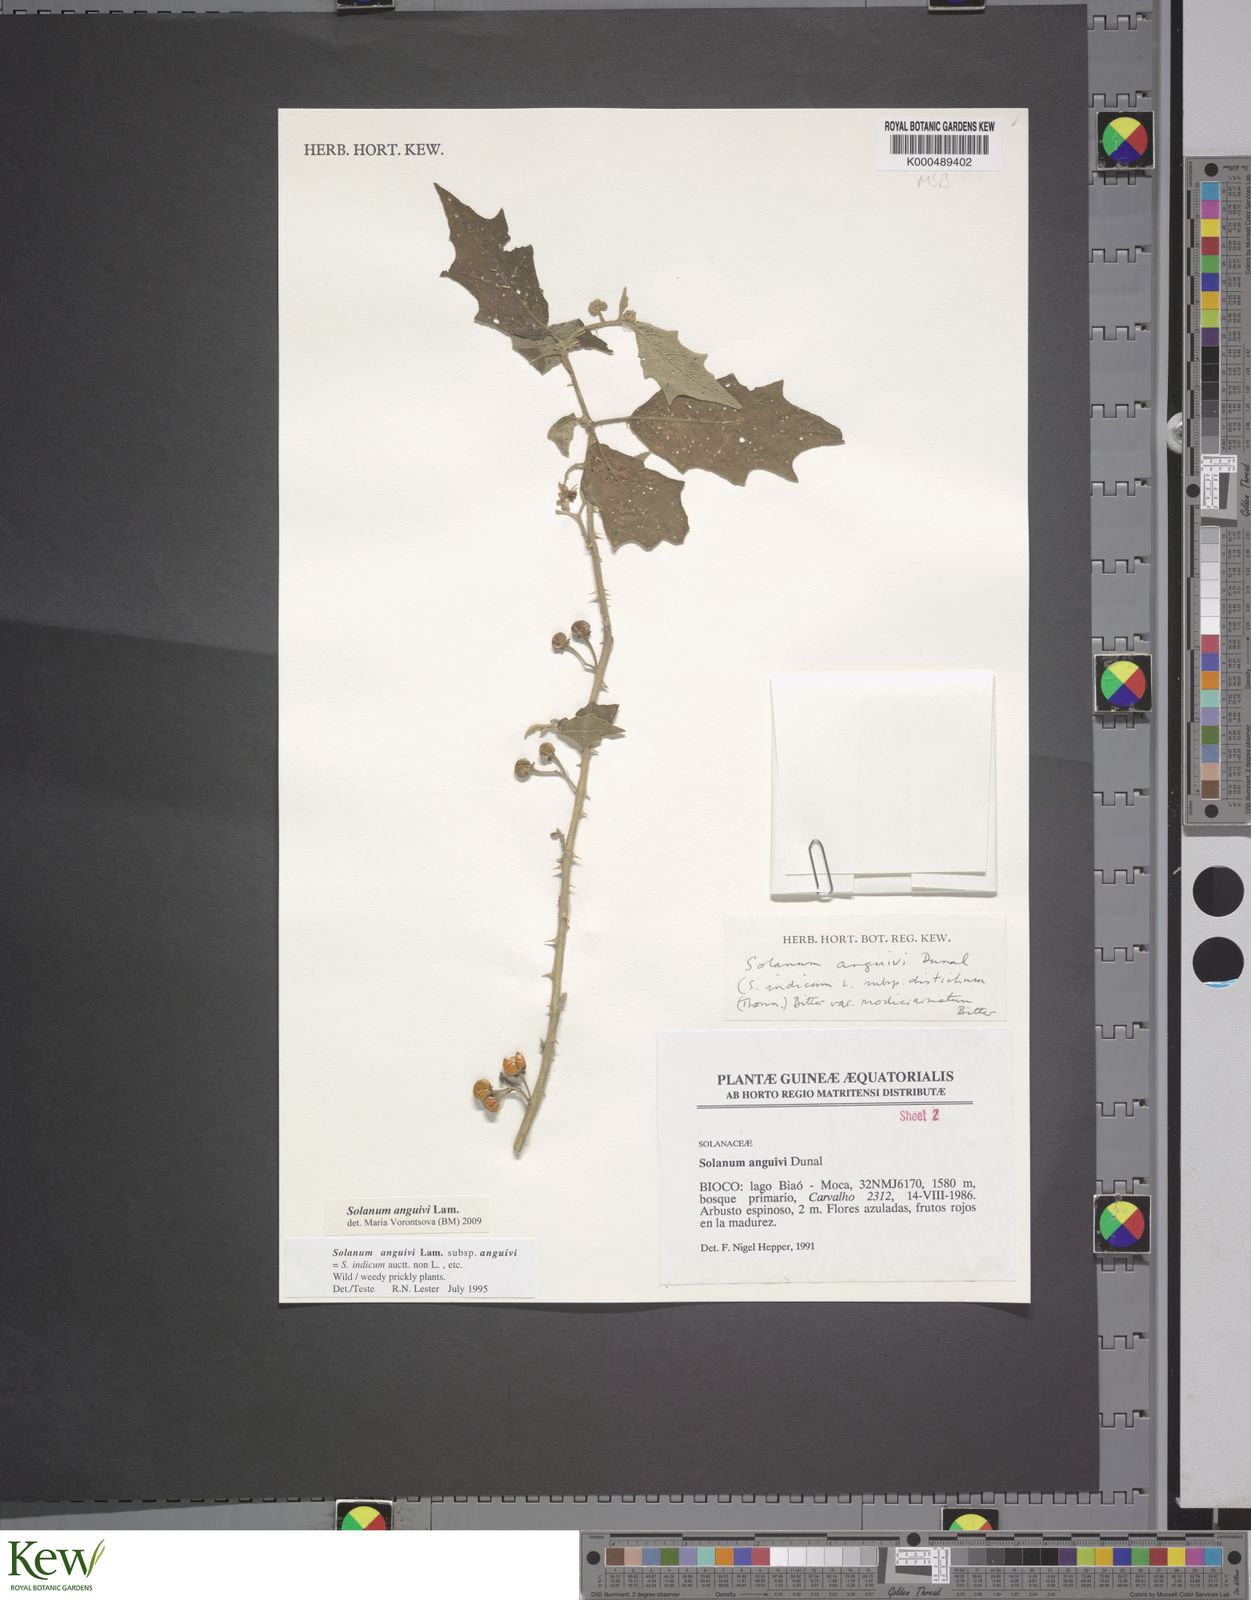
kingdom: Plantae
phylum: Tracheophyta
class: Magnoliopsida
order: Solanales
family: Solanaceae
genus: Solanum
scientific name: Solanum anguivi
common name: Forest bitterberry
